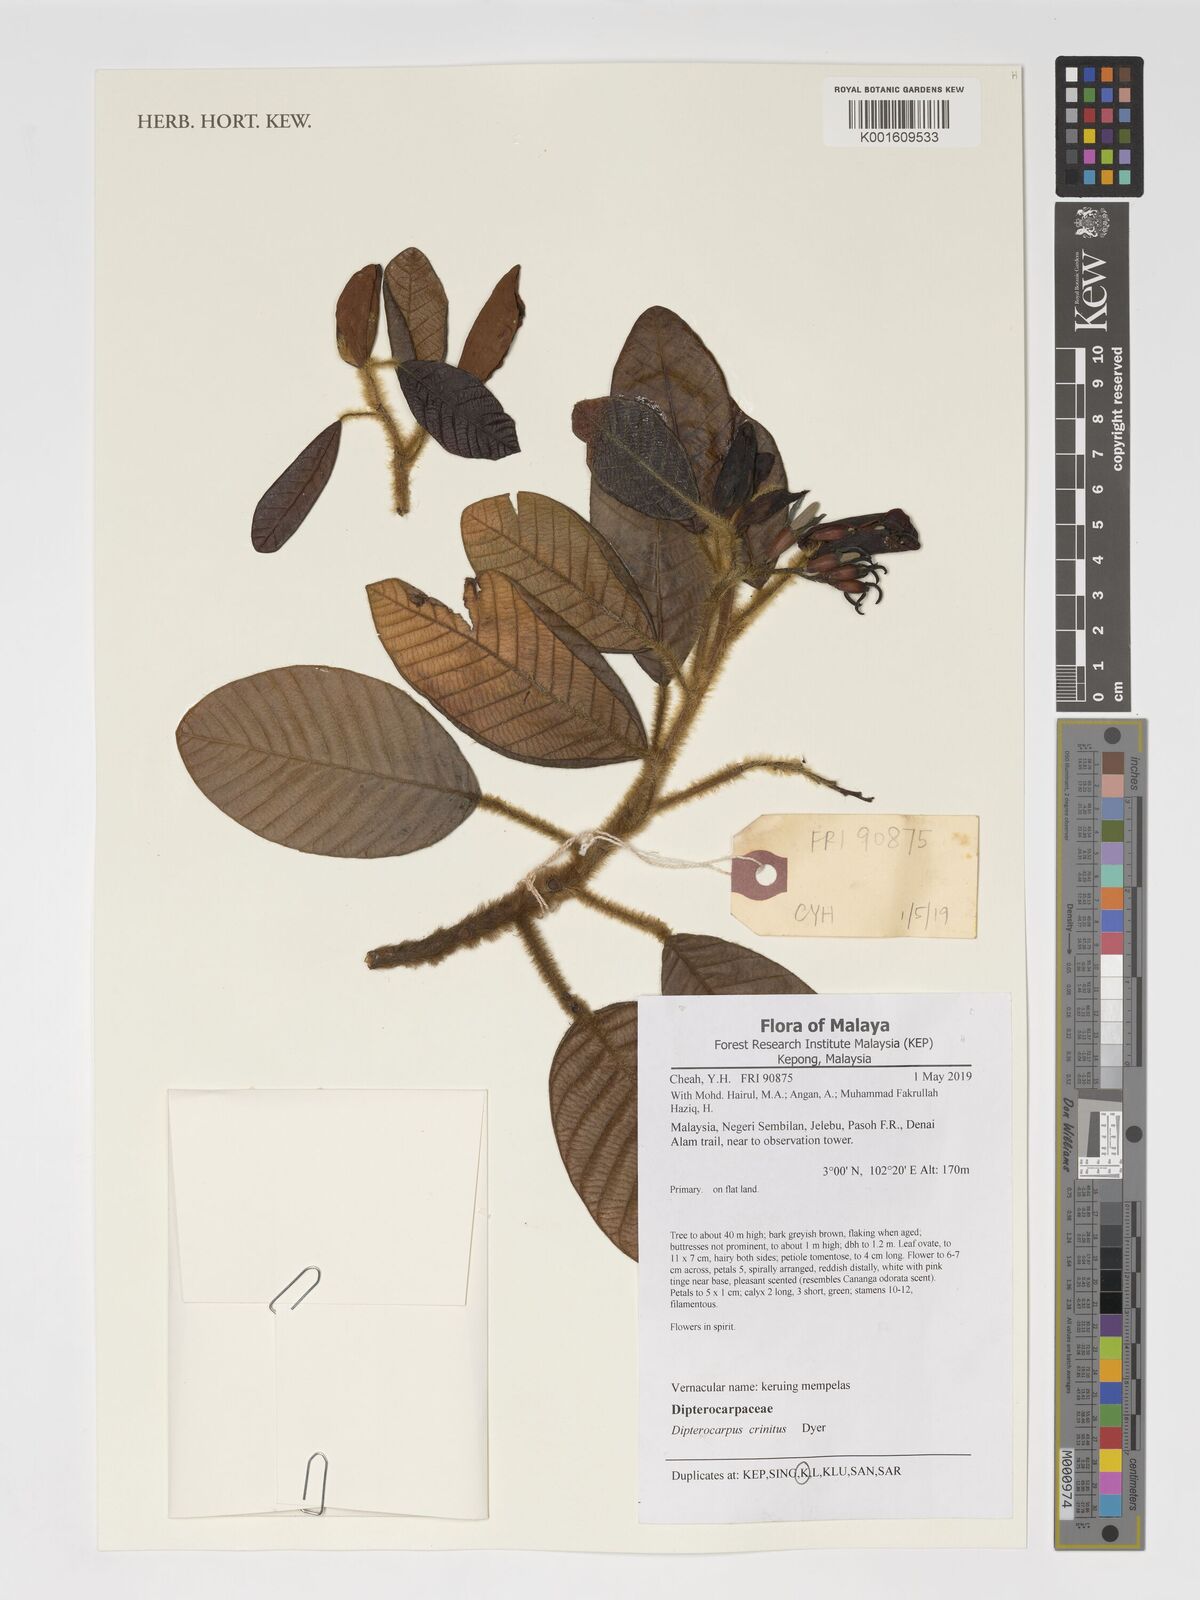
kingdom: Plantae
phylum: Tracheophyta
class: Magnoliopsida
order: Malvales
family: Dipterocarpaceae
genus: Dipterocarpus
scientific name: Dipterocarpus crinitus
